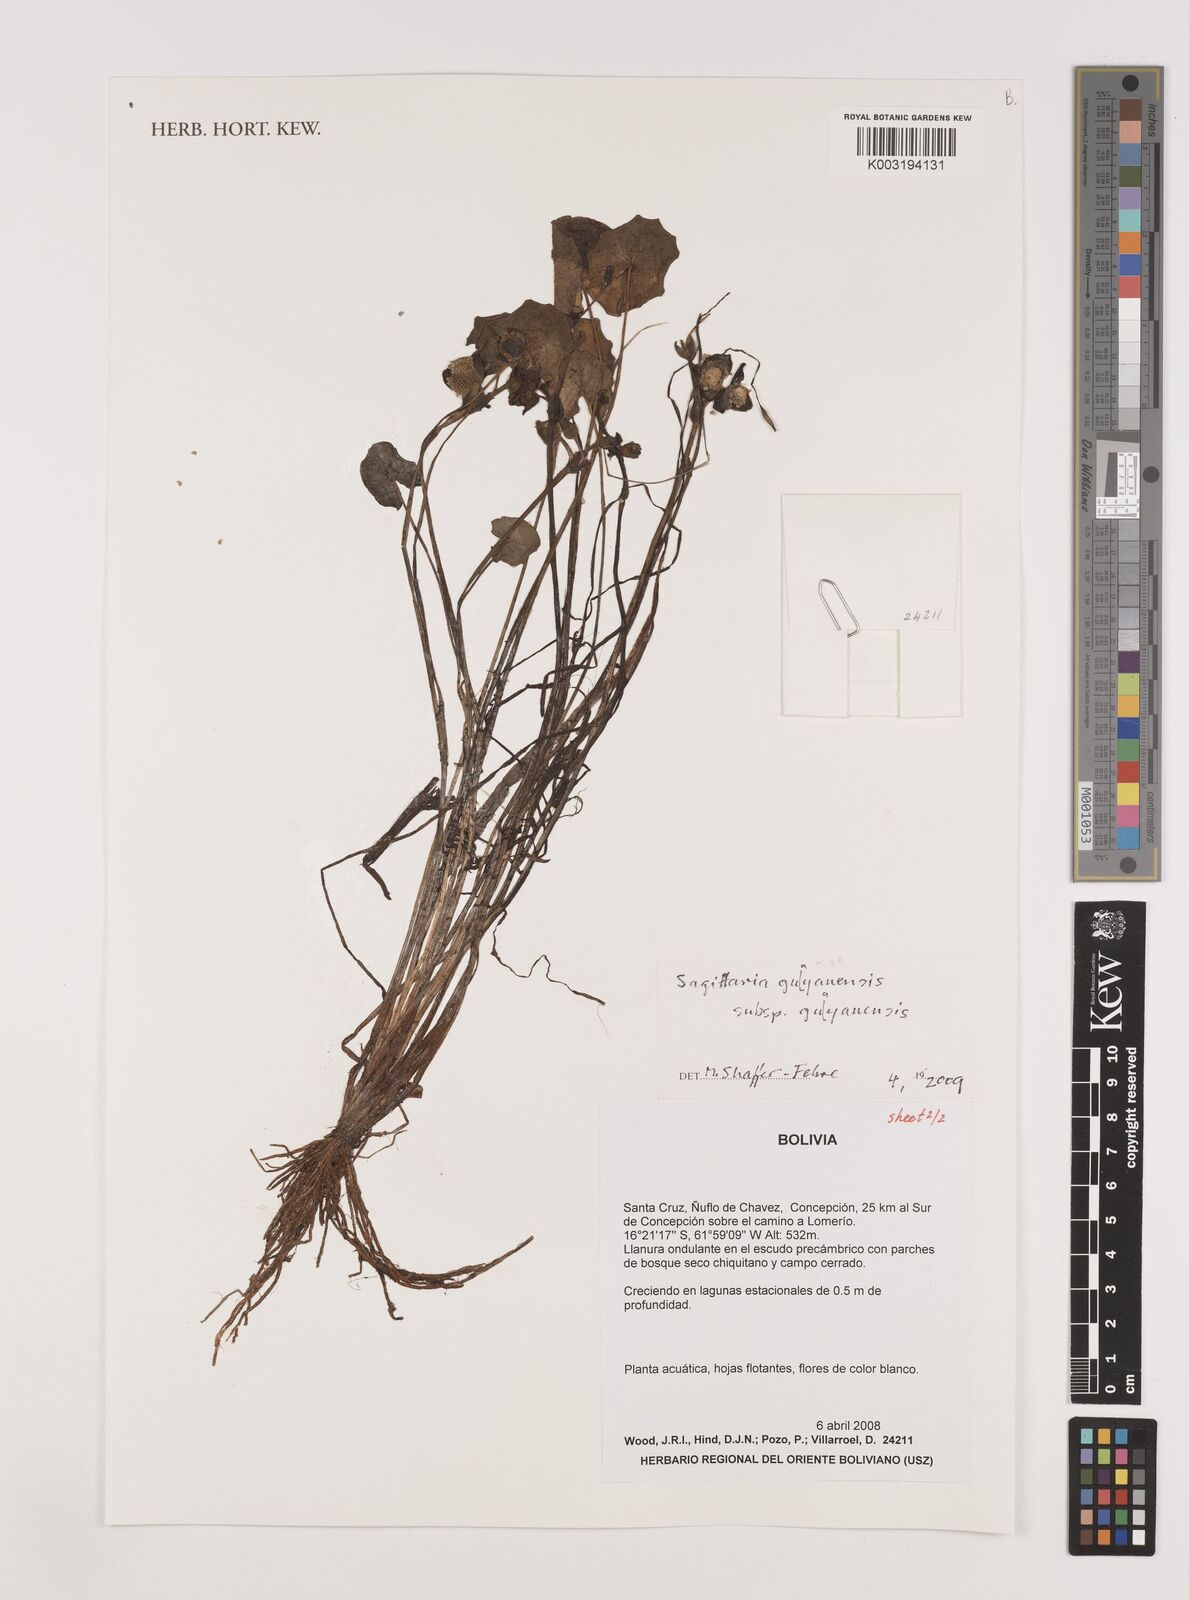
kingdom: Plantae
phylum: Tracheophyta
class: Liliopsida
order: Alismatales
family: Alismataceae
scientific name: Alismataceae
